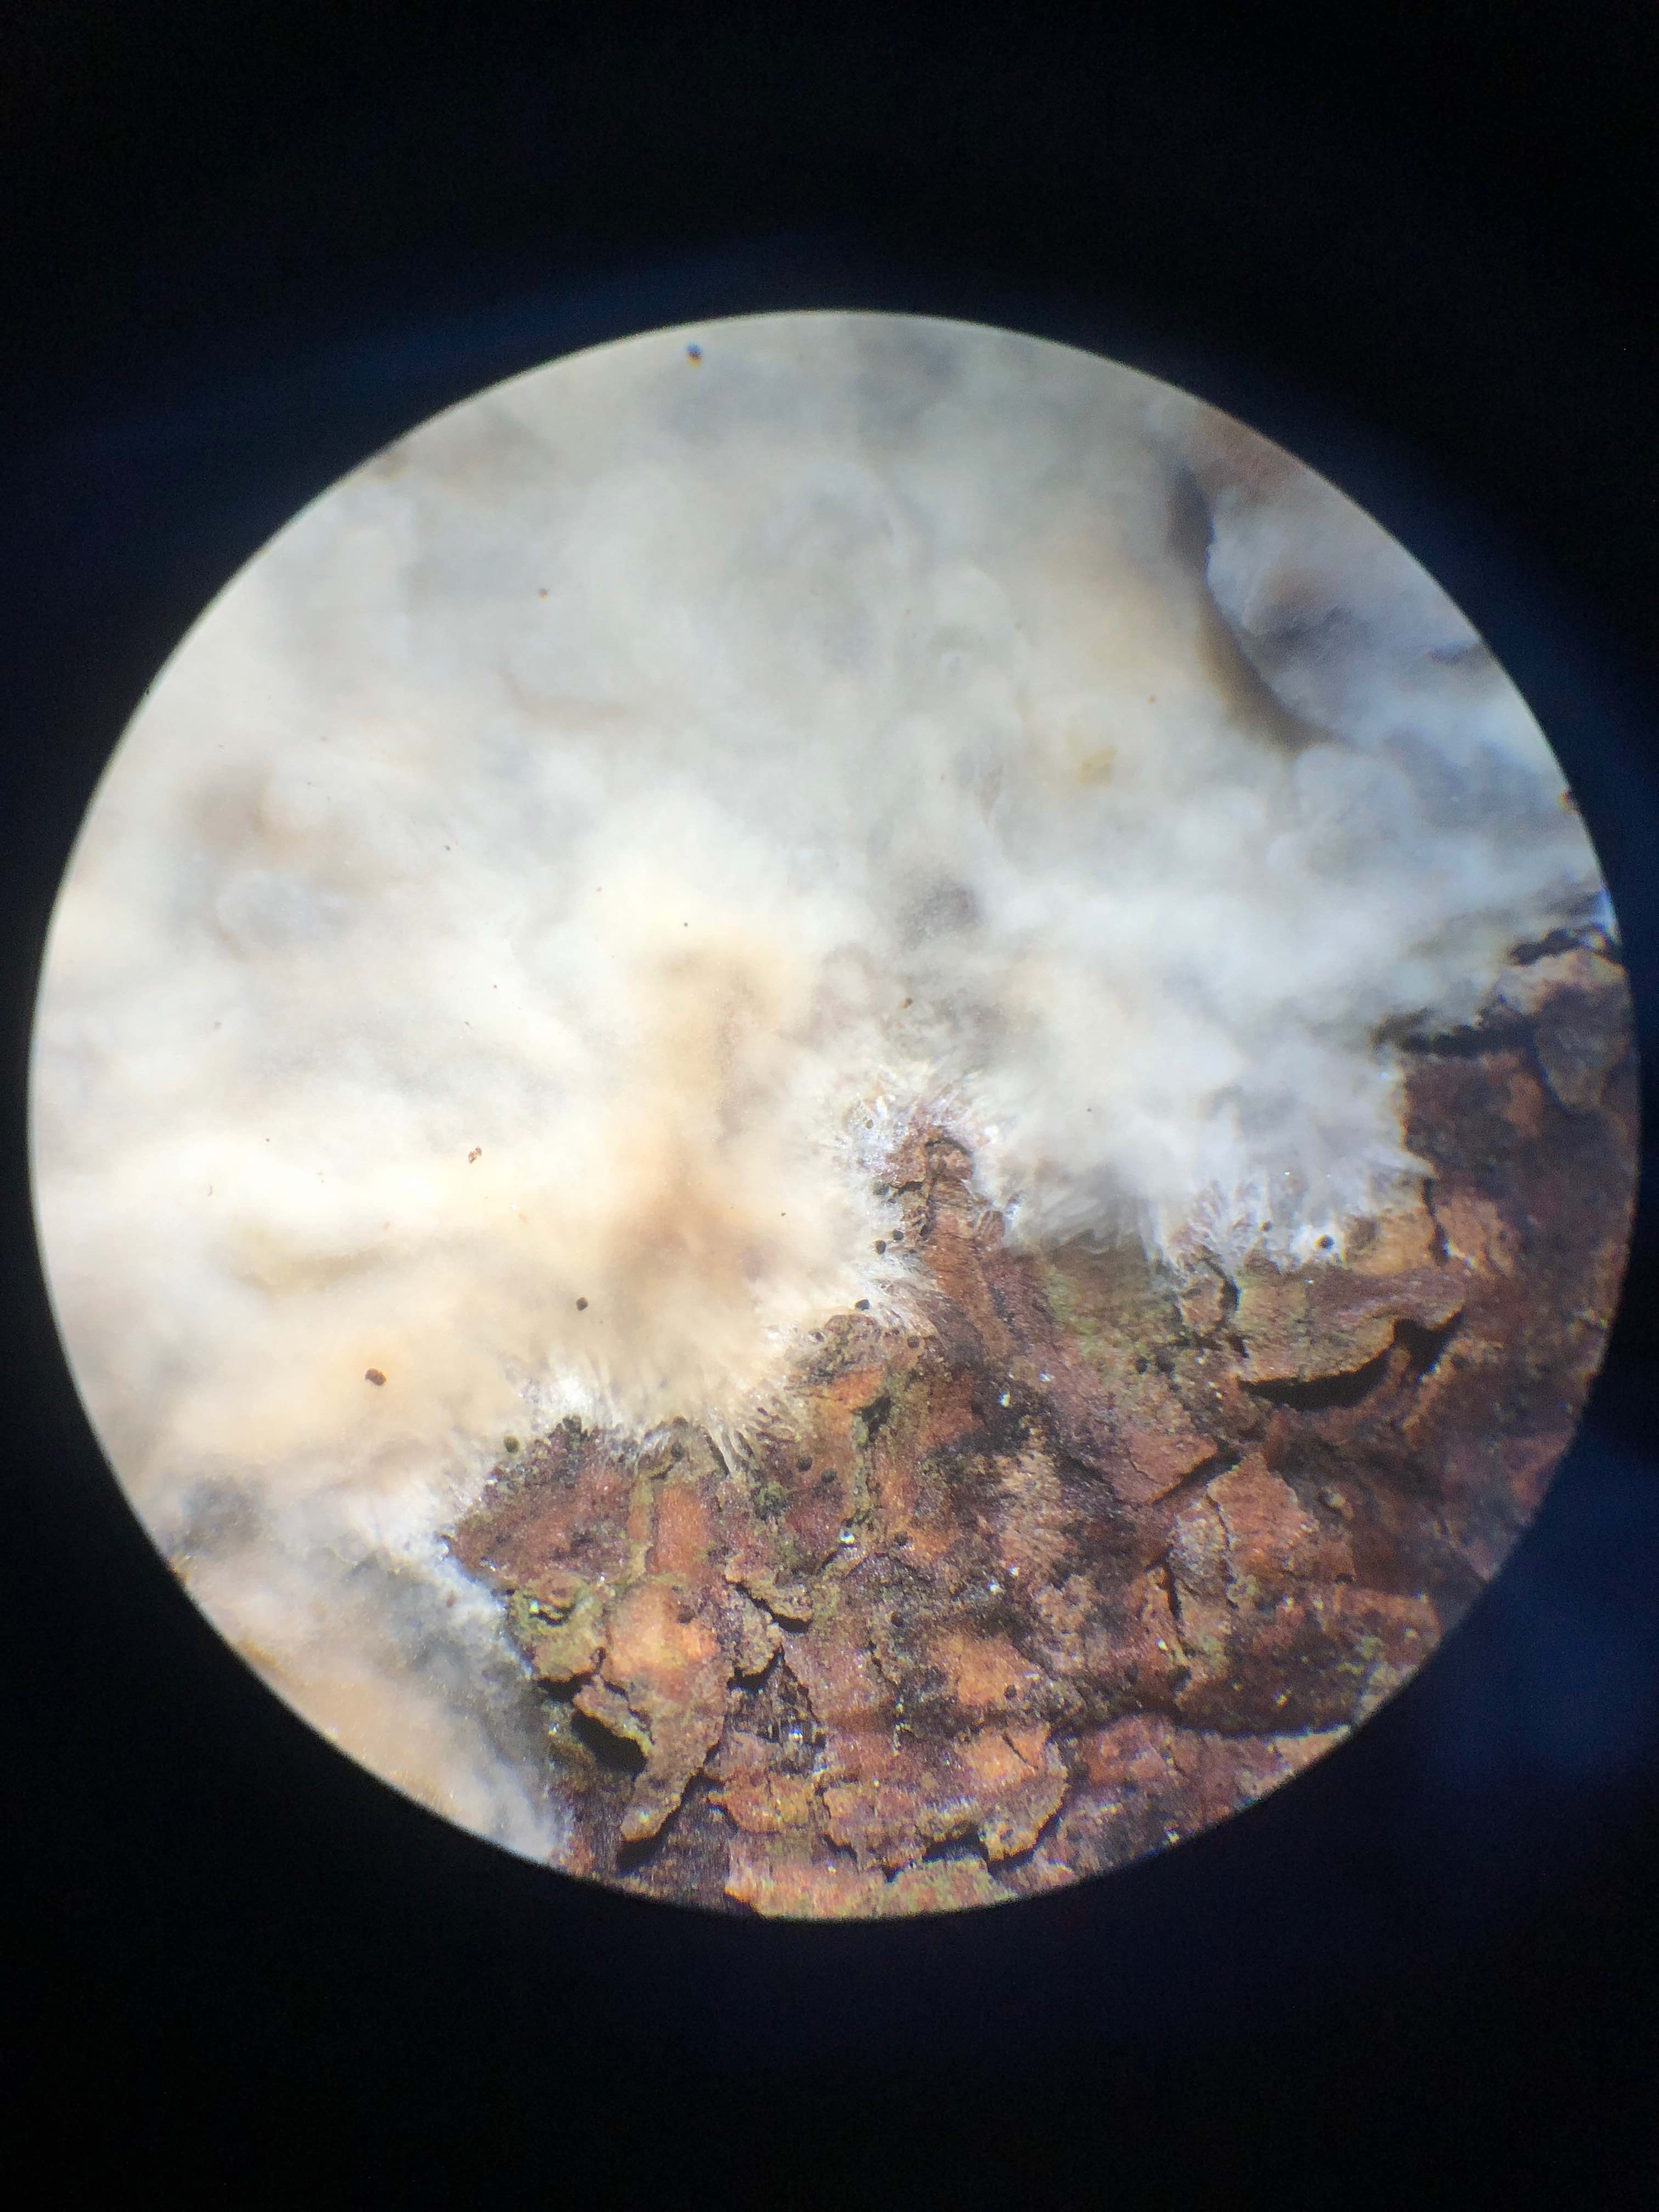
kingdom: Fungi
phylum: Basidiomycota
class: Agaricomycetes
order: Polyporales
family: Phanerochaetaceae
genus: Phlebiopsis
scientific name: Phlebiopsis gigantea
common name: kæmpebarksvamp
